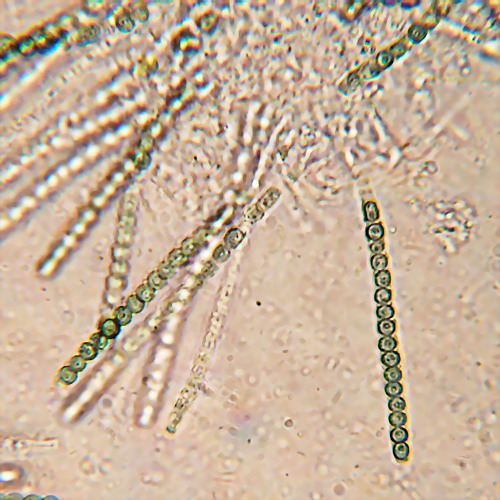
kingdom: Fungi
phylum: Ascomycota
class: Sordariomycetes
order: Hypocreales
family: Hypocreaceae
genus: Trichoderma
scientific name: Trichoderma strictipile
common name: grønprikket kødkerne
